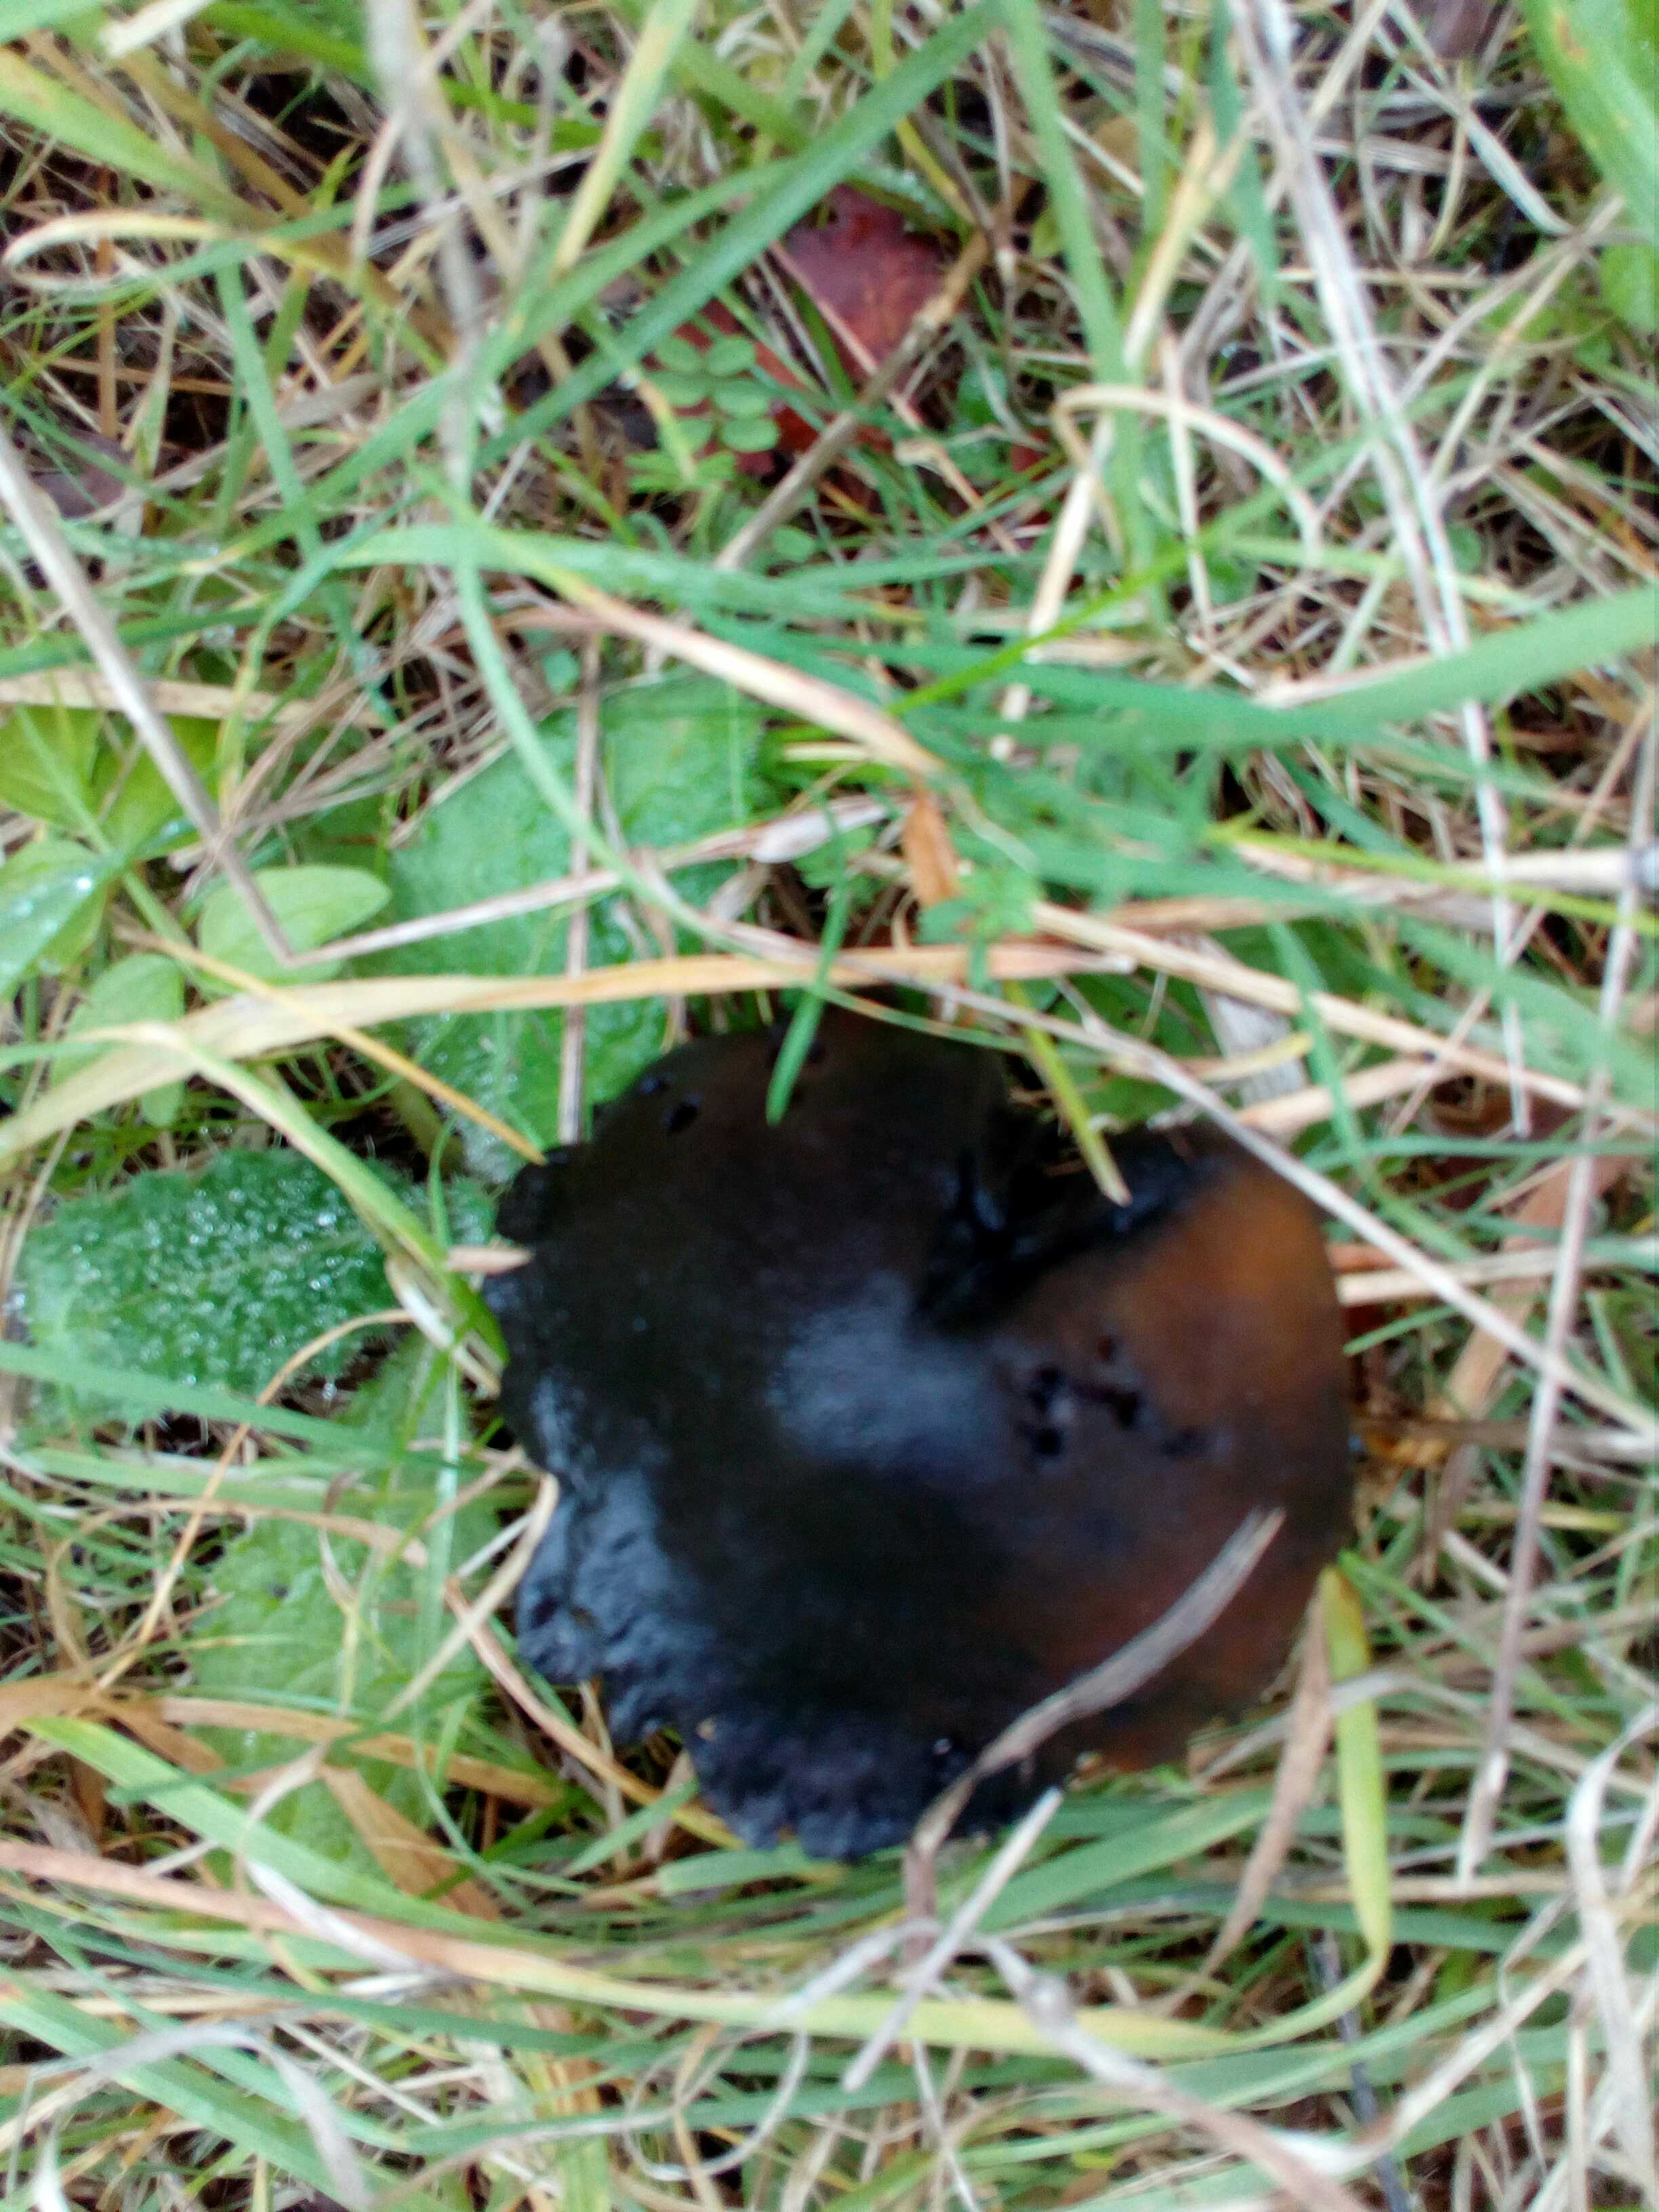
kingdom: Fungi
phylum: Basidiomycota
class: Agaricomycetes
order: Agaricales
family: Hygrophoraceae
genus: Hygrocybe
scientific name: Hygrocybe conica
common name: kegle-vokshat
